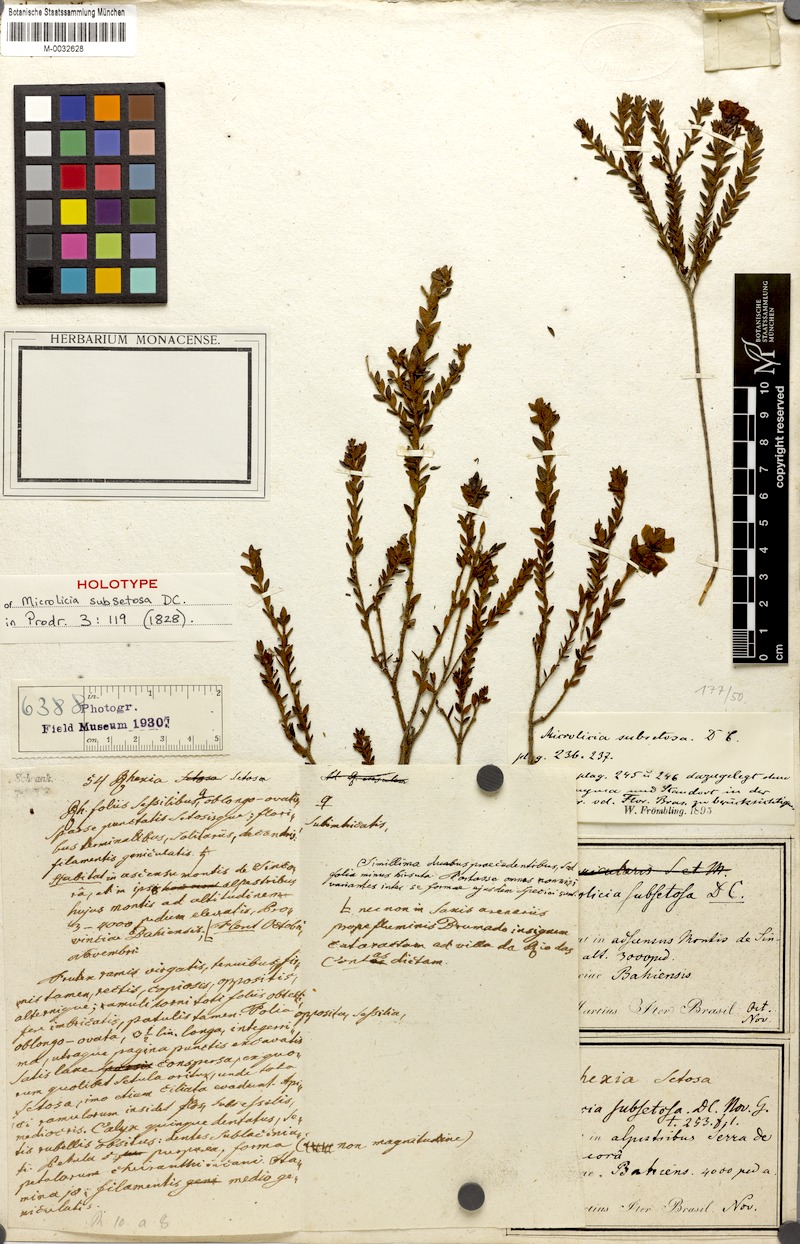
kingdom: Plantae
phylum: Tracheophyta
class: Magnoliopsida
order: Myrtales
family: Melastomataceae
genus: Microlicia
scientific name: Microlicia subsetosa
